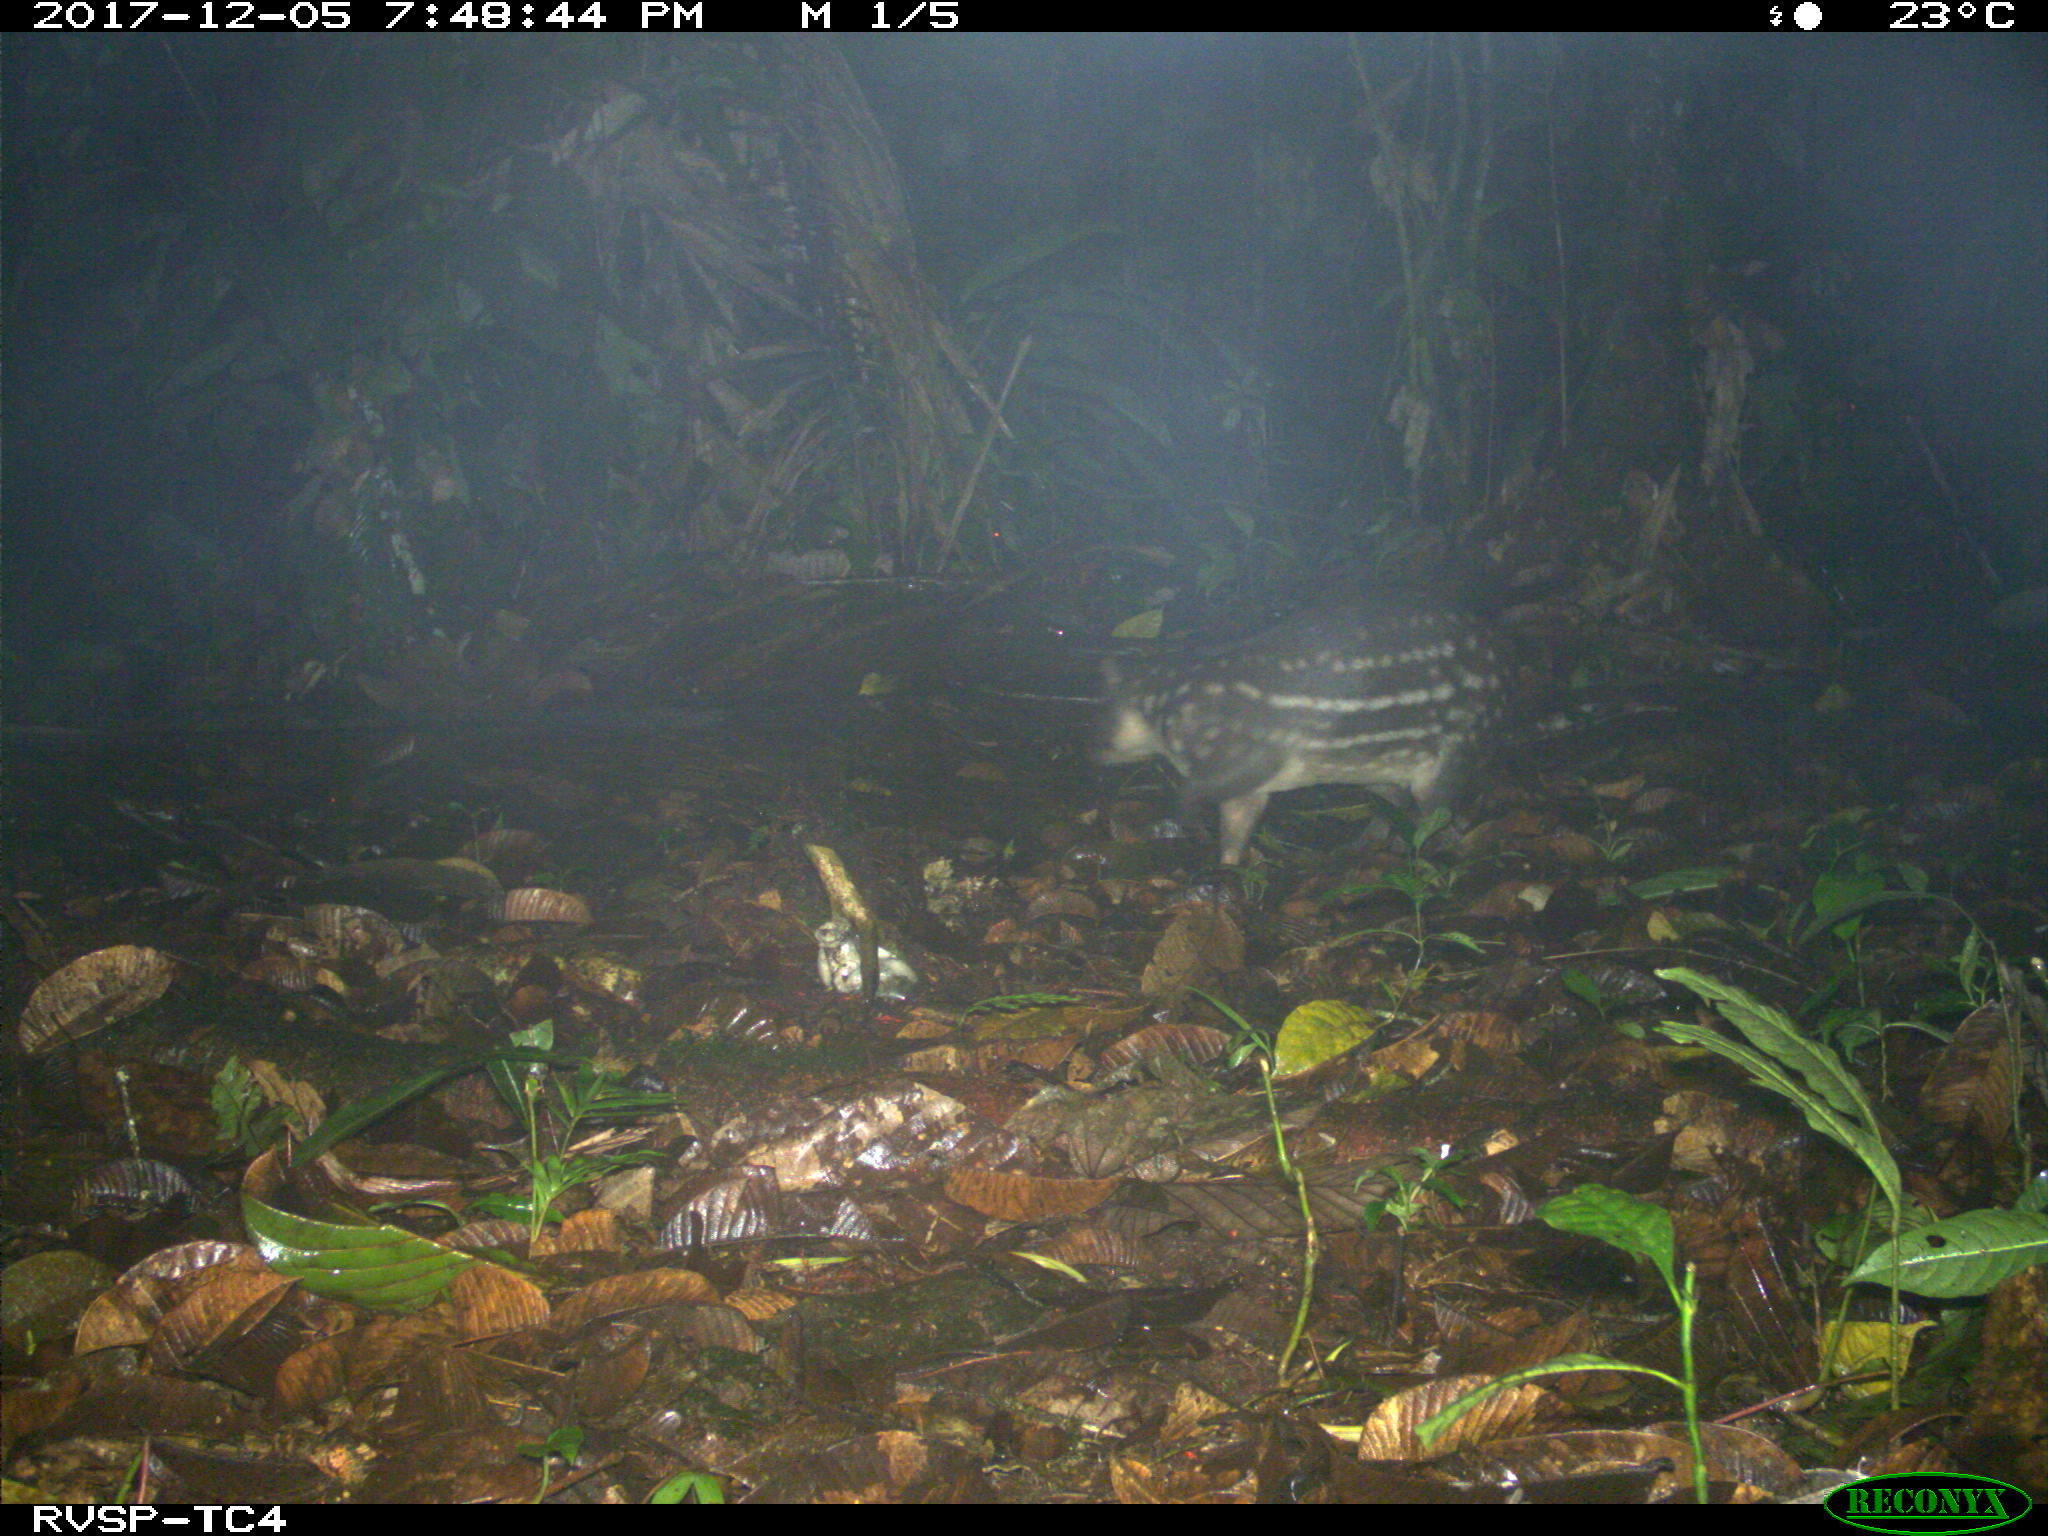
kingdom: Animalia
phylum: Chordata
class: Mammalia
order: Rodentia
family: Cuniculidae
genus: Cuniculus
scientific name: Cuniculus paca
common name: Lowland paca
